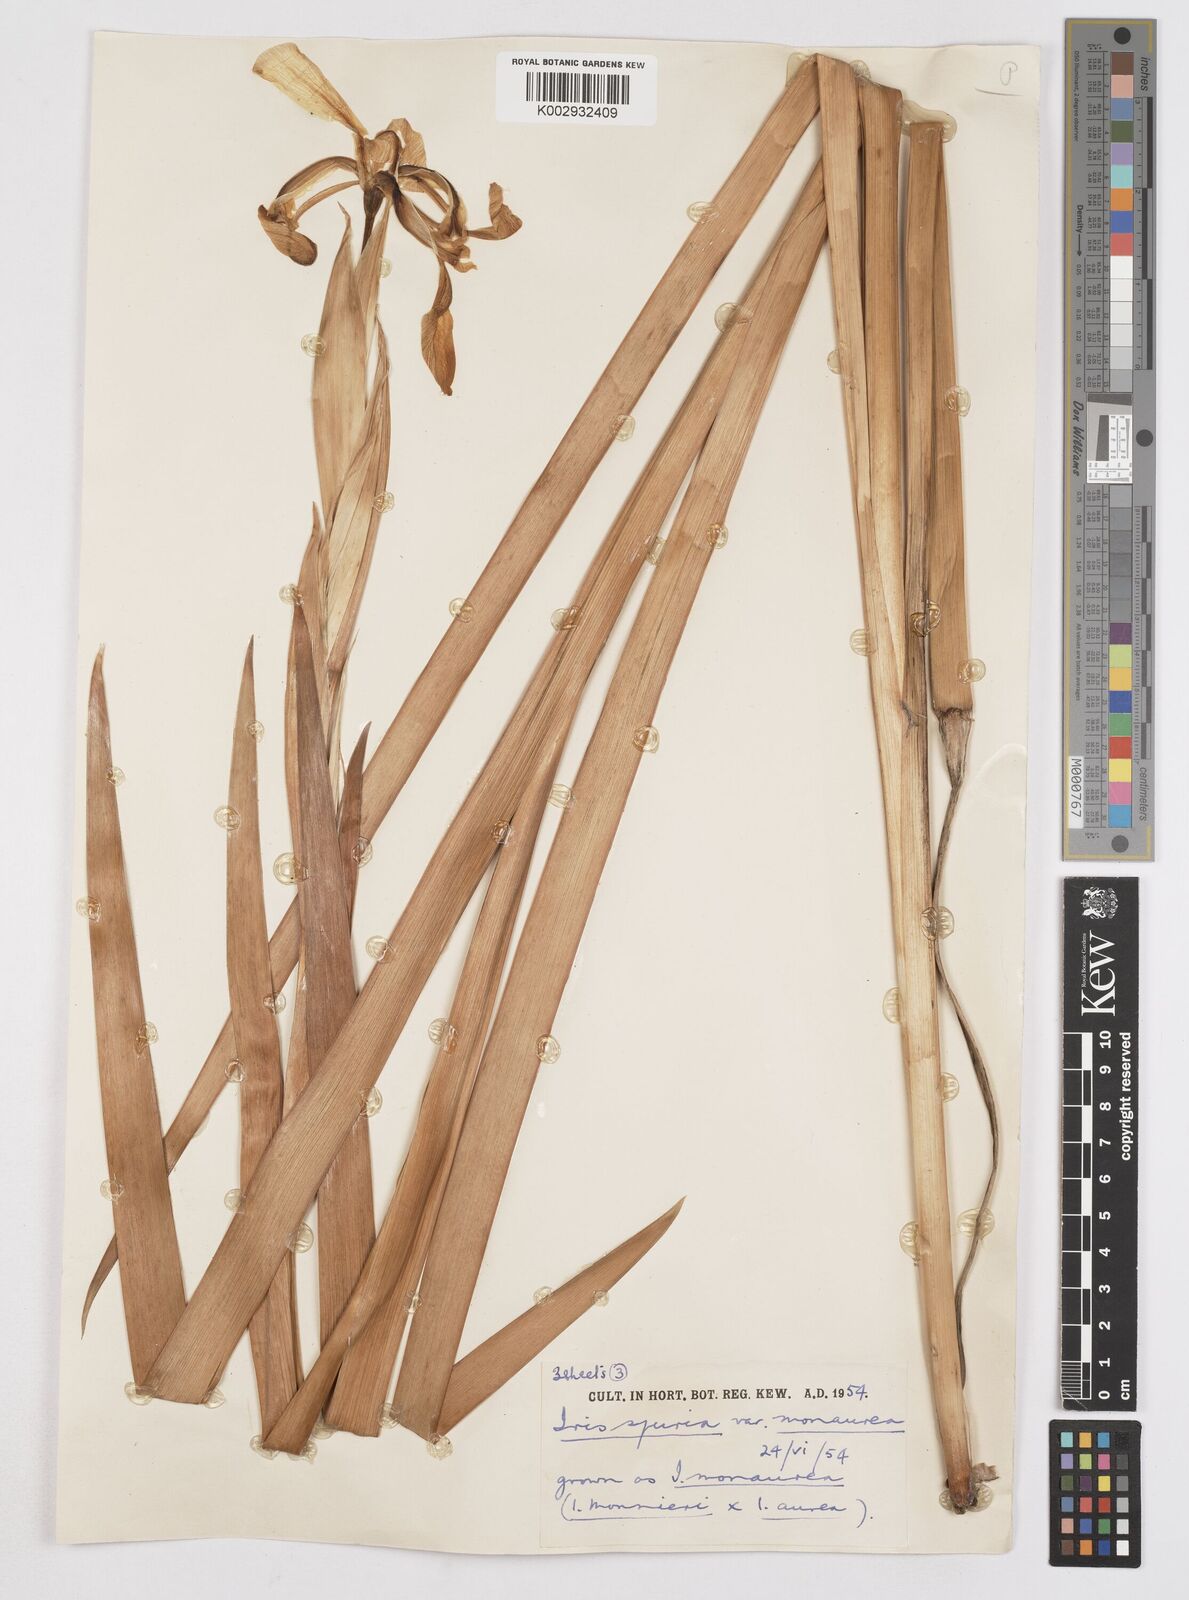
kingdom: Plantae
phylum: Tracheophyta
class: Liliopsida
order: Asparagales
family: Iridaceae
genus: Iris
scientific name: Iris spuria
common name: Blue iris
